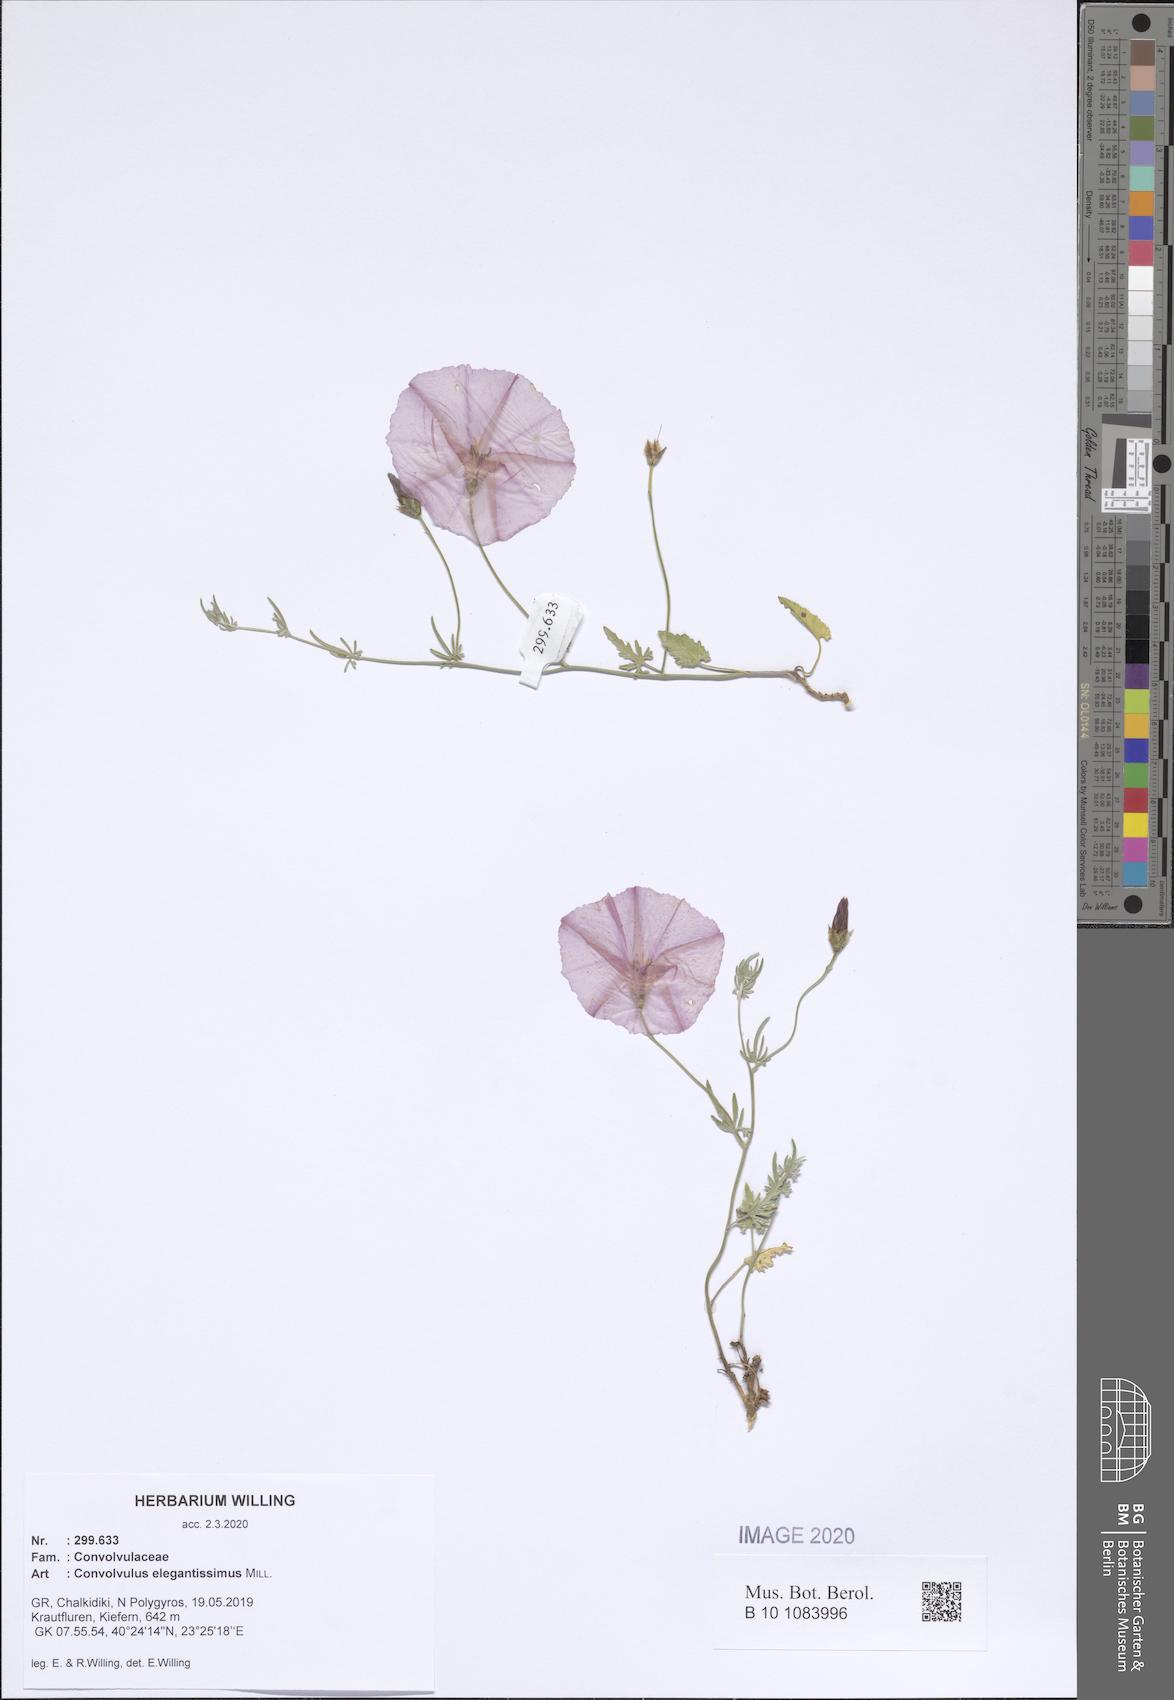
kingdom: Plantae
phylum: Tracheophyta
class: Magnoliopsida
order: Solanales
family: Convolvulaceae
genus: Convolvulus
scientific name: Convolvulus elegantissimus
